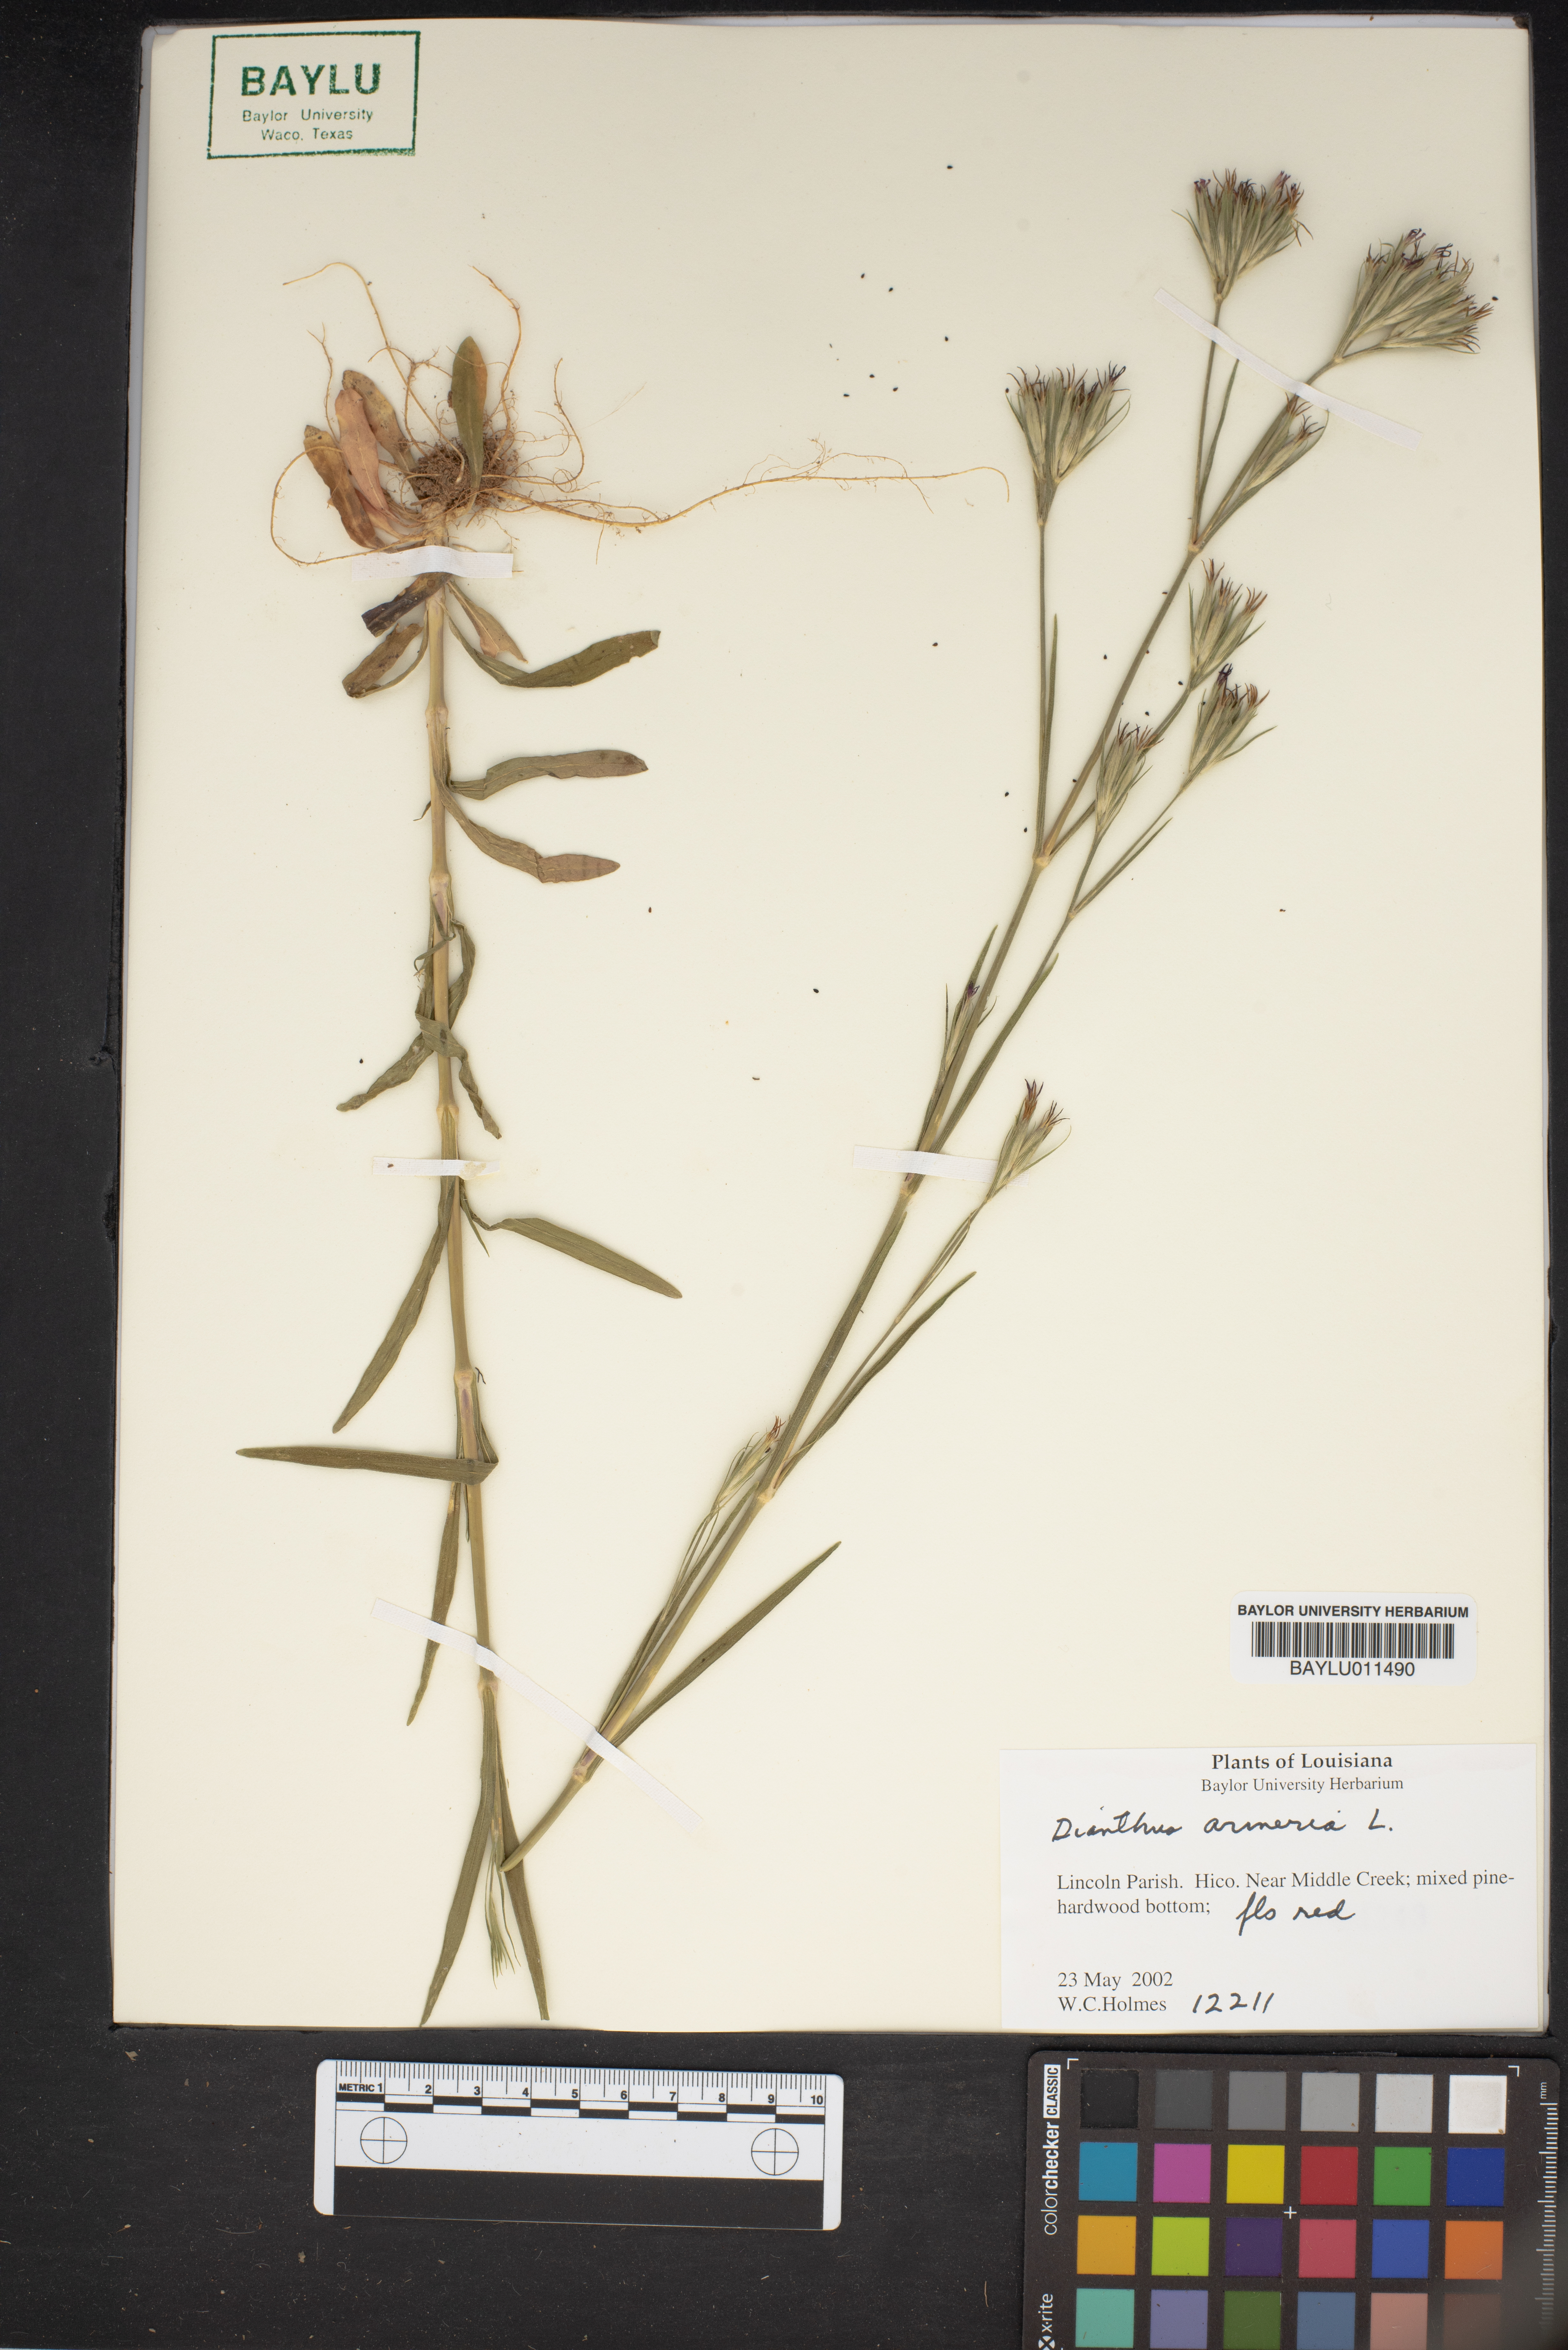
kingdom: Plantae
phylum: Tracheophyta
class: Magnoliopsida
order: Caryophyllales
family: Caryophyllaceae
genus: Dianthus
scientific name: Dianthus arenarius
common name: Stone pink
